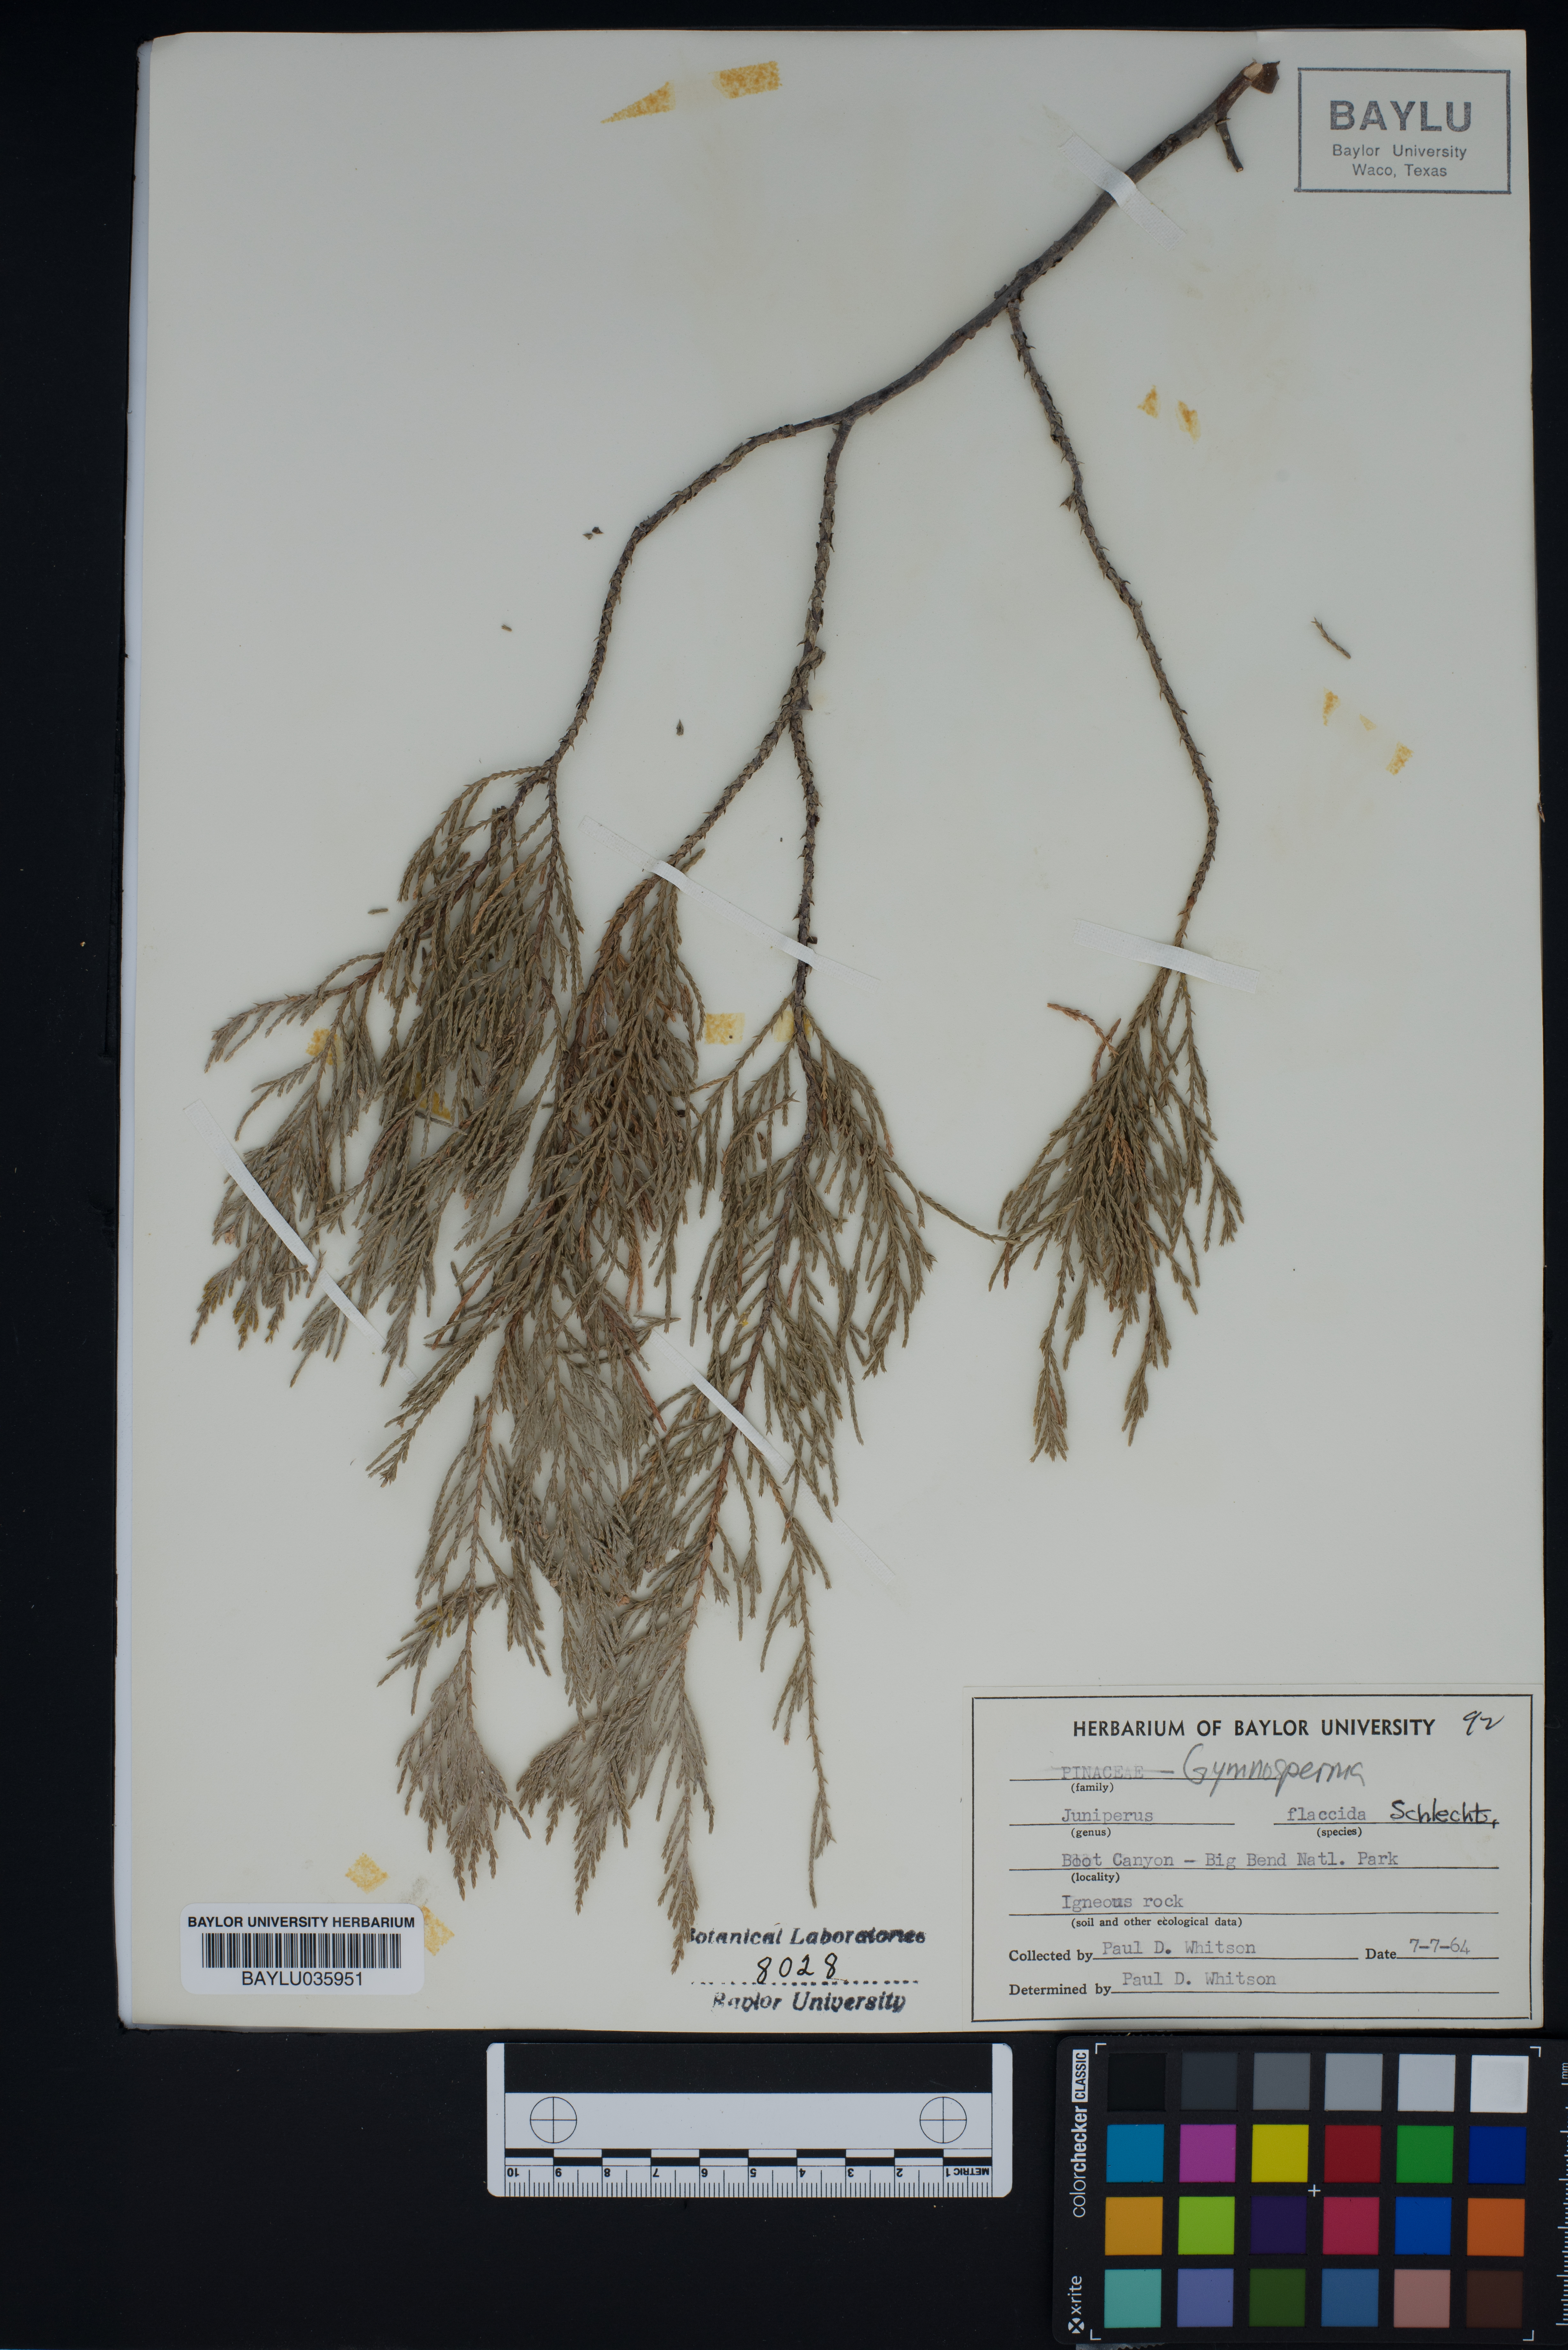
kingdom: Plantae
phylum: Tracheophyta
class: Pinopsida
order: Pinales
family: Cupressaceae
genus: Juniperus
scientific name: Juniperus flaccida
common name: Drooping juniper
